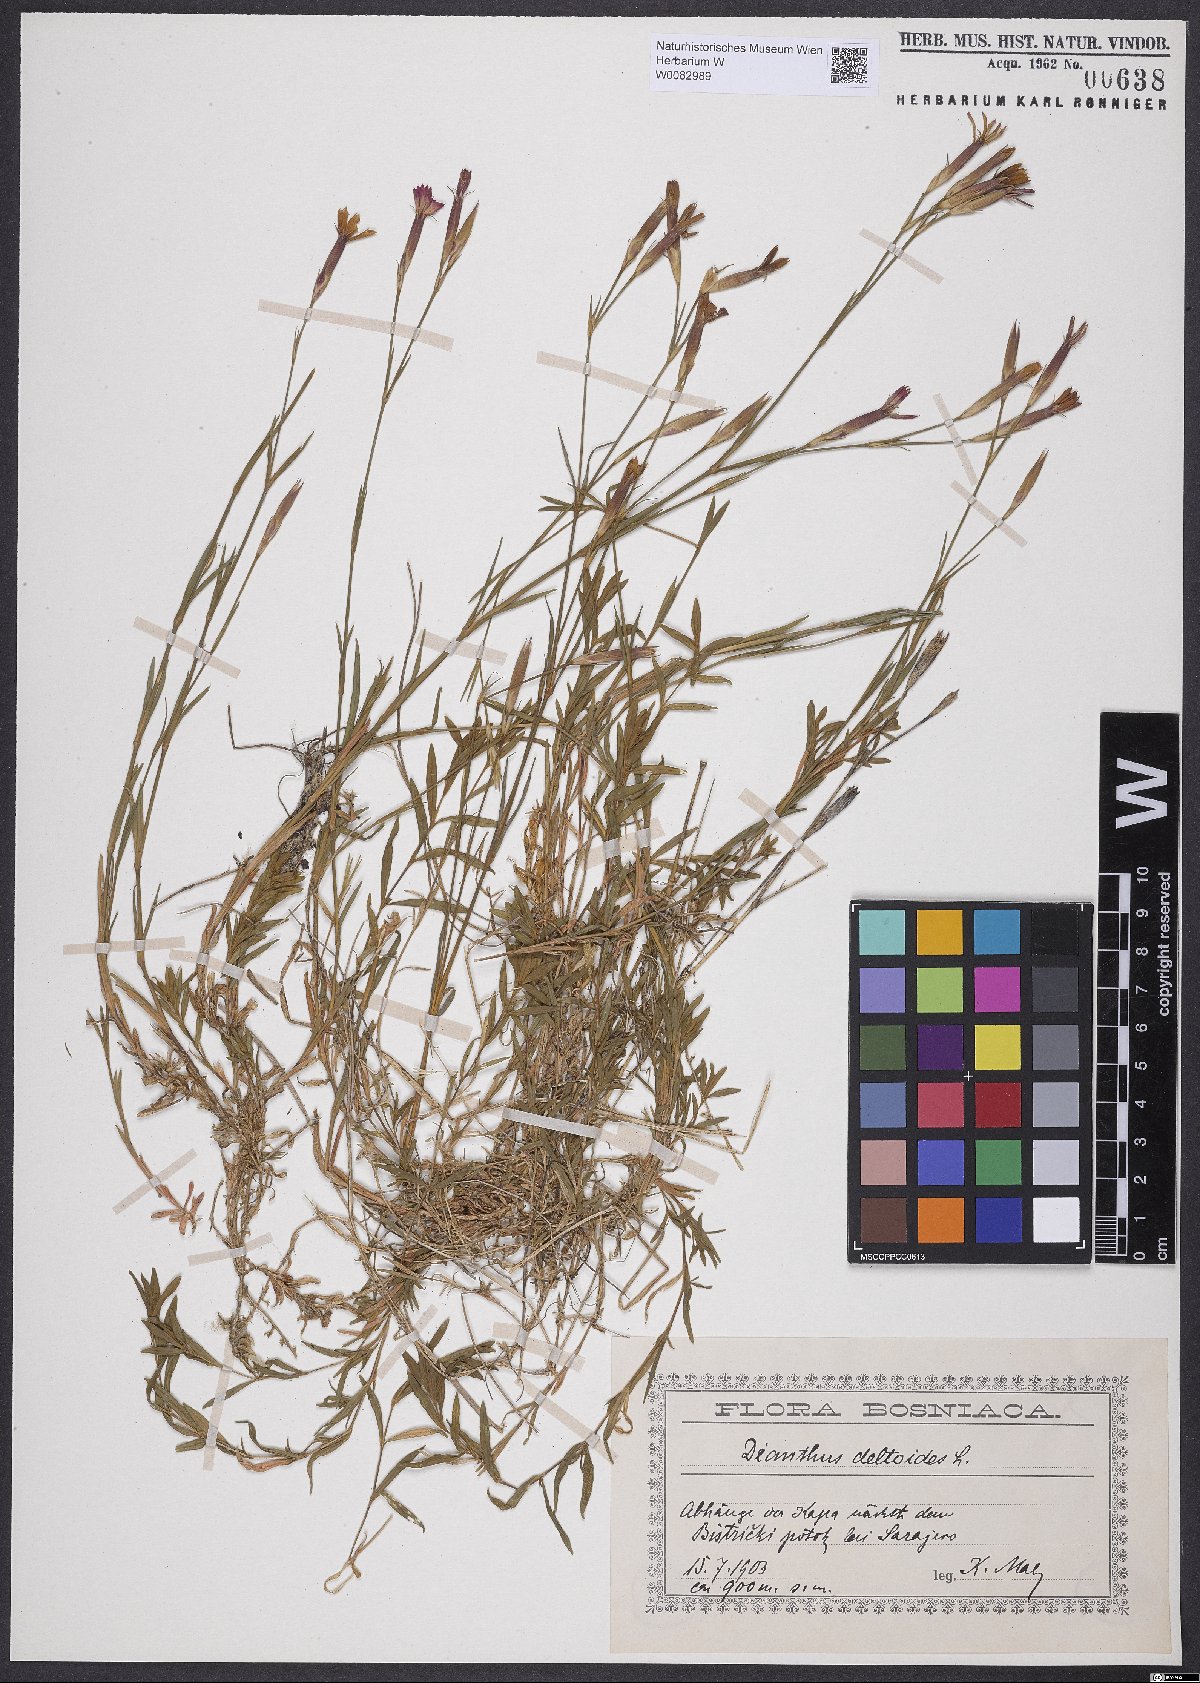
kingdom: Plantae
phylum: Tracheophyta
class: Magnoliopsida
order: Caryophyllales
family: Caryophyllaceae
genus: Dianthus
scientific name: Dianthus deltoides
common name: Maiden pink
